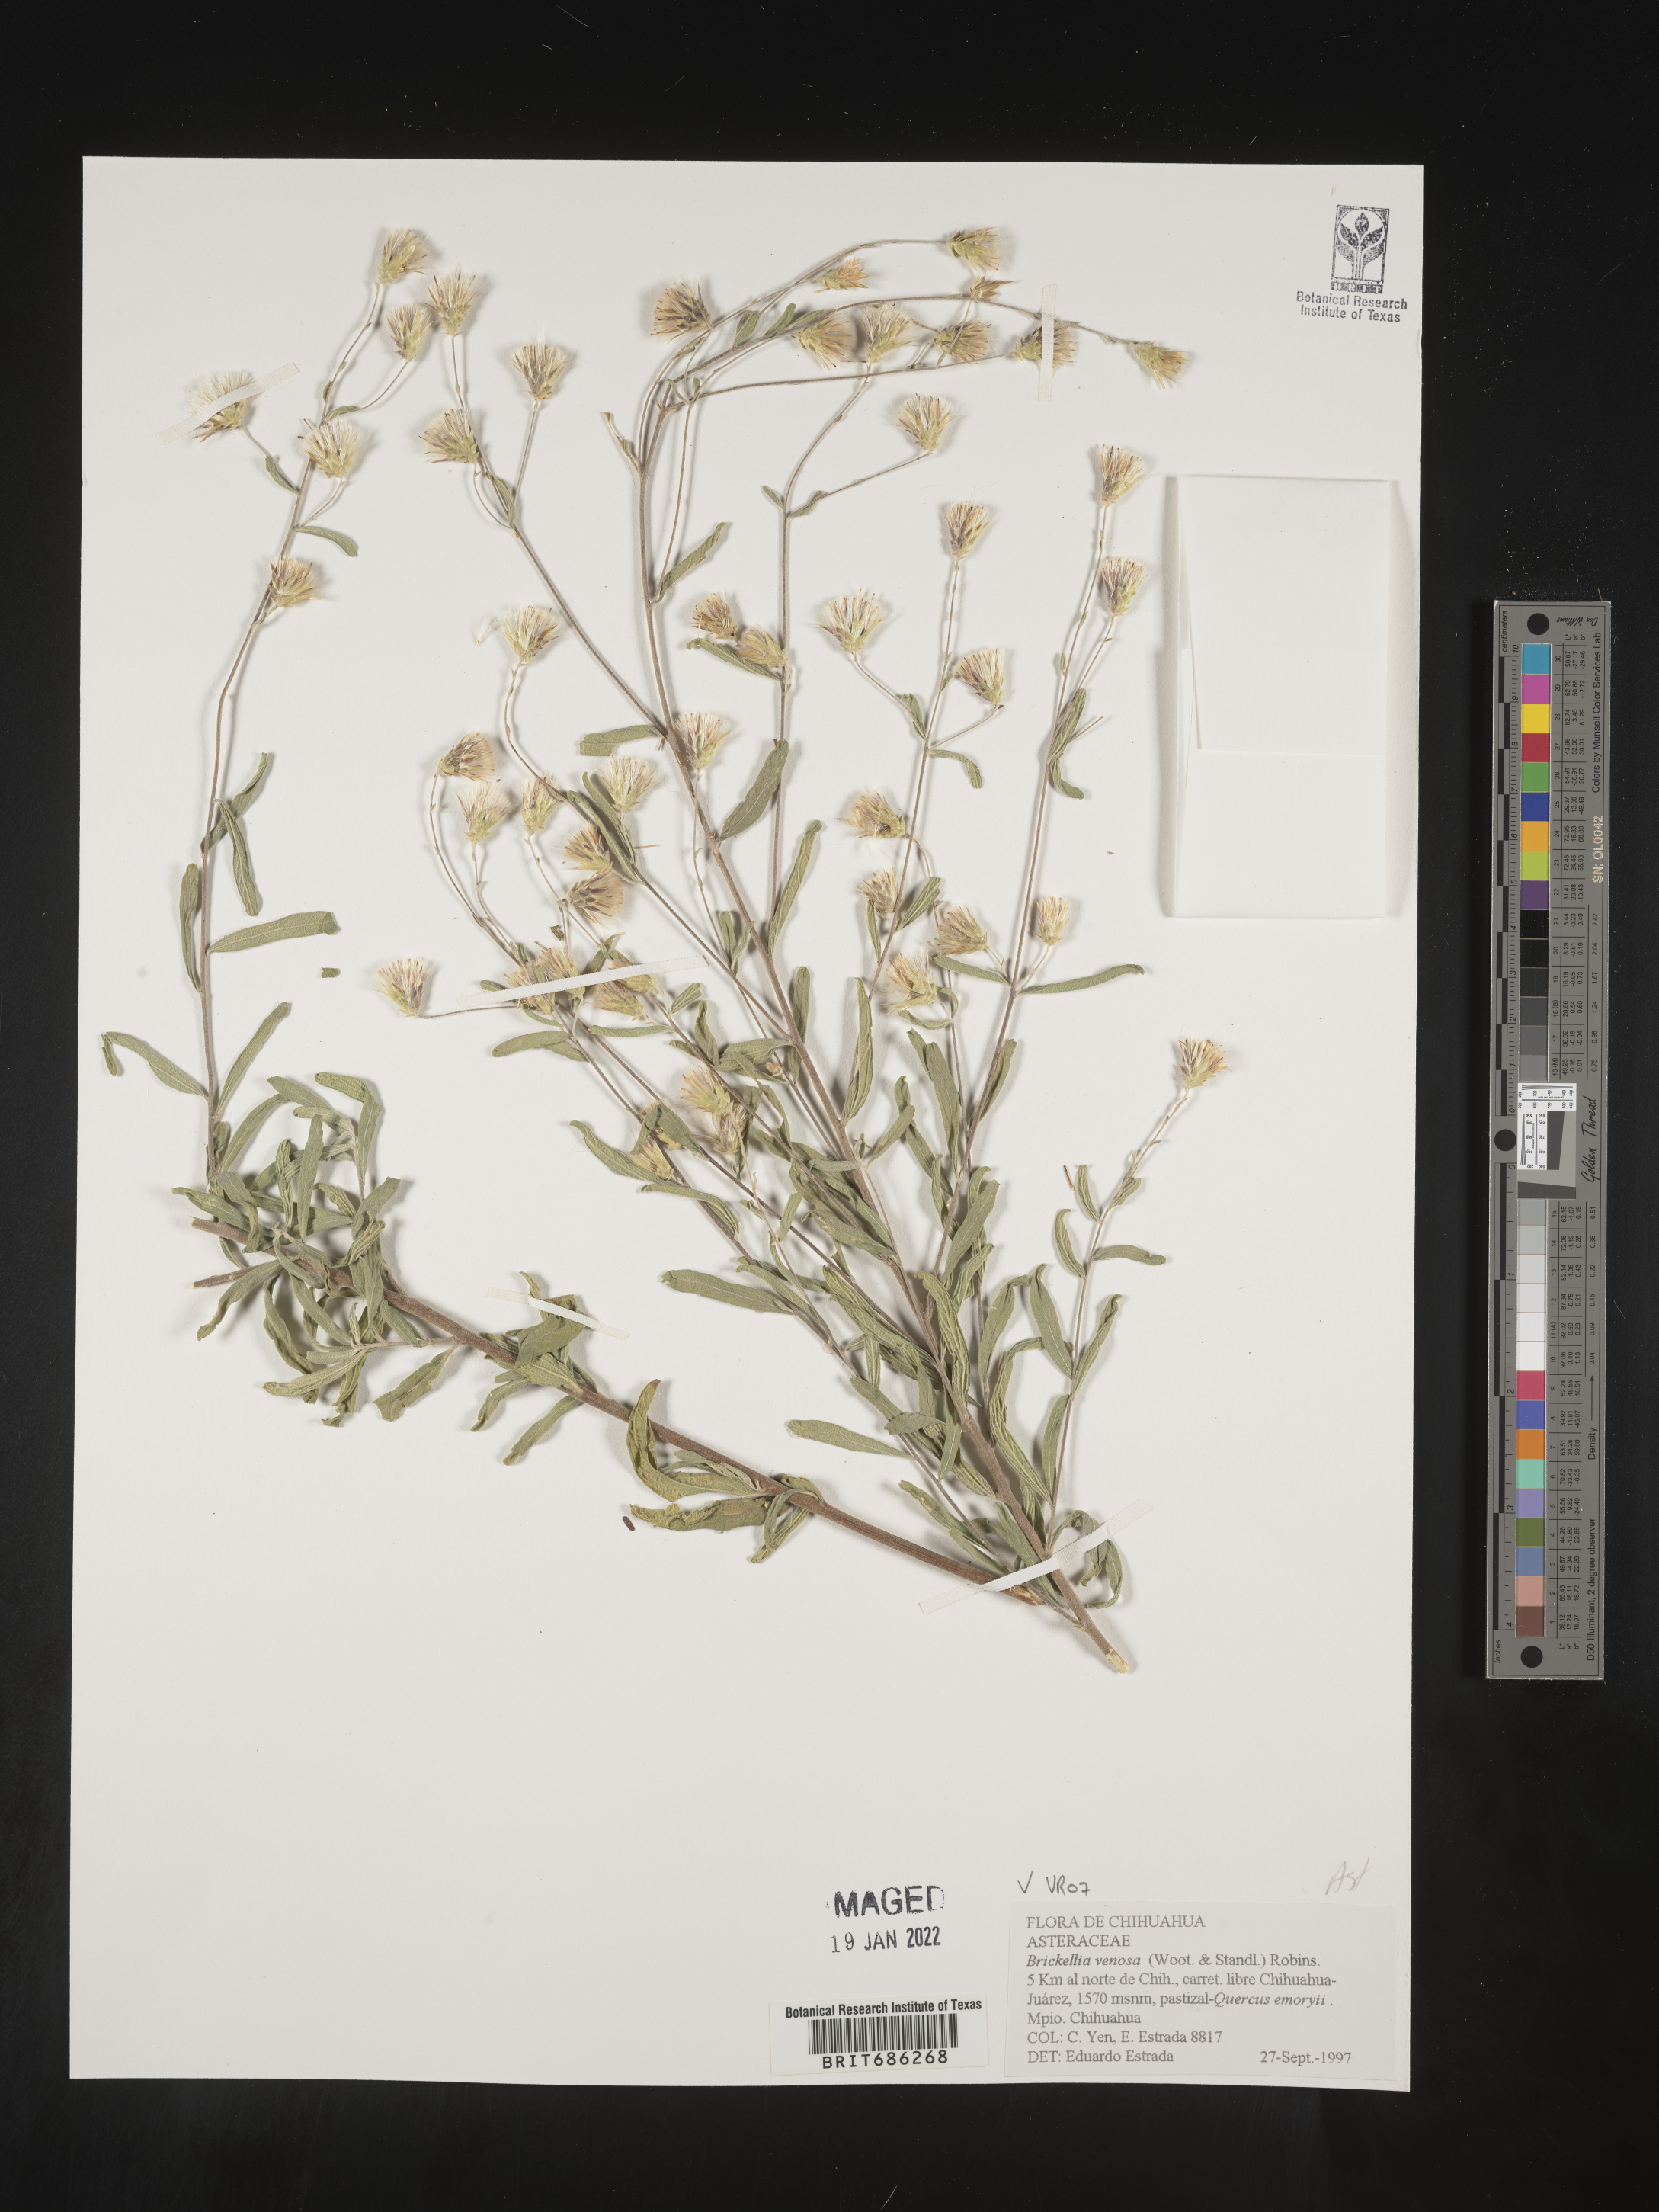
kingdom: Plantae
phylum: Tracheophyta
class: Magnoliopsida
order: Asterales
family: Asteraceae
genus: Brickellia
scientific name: Brickellia venosa
